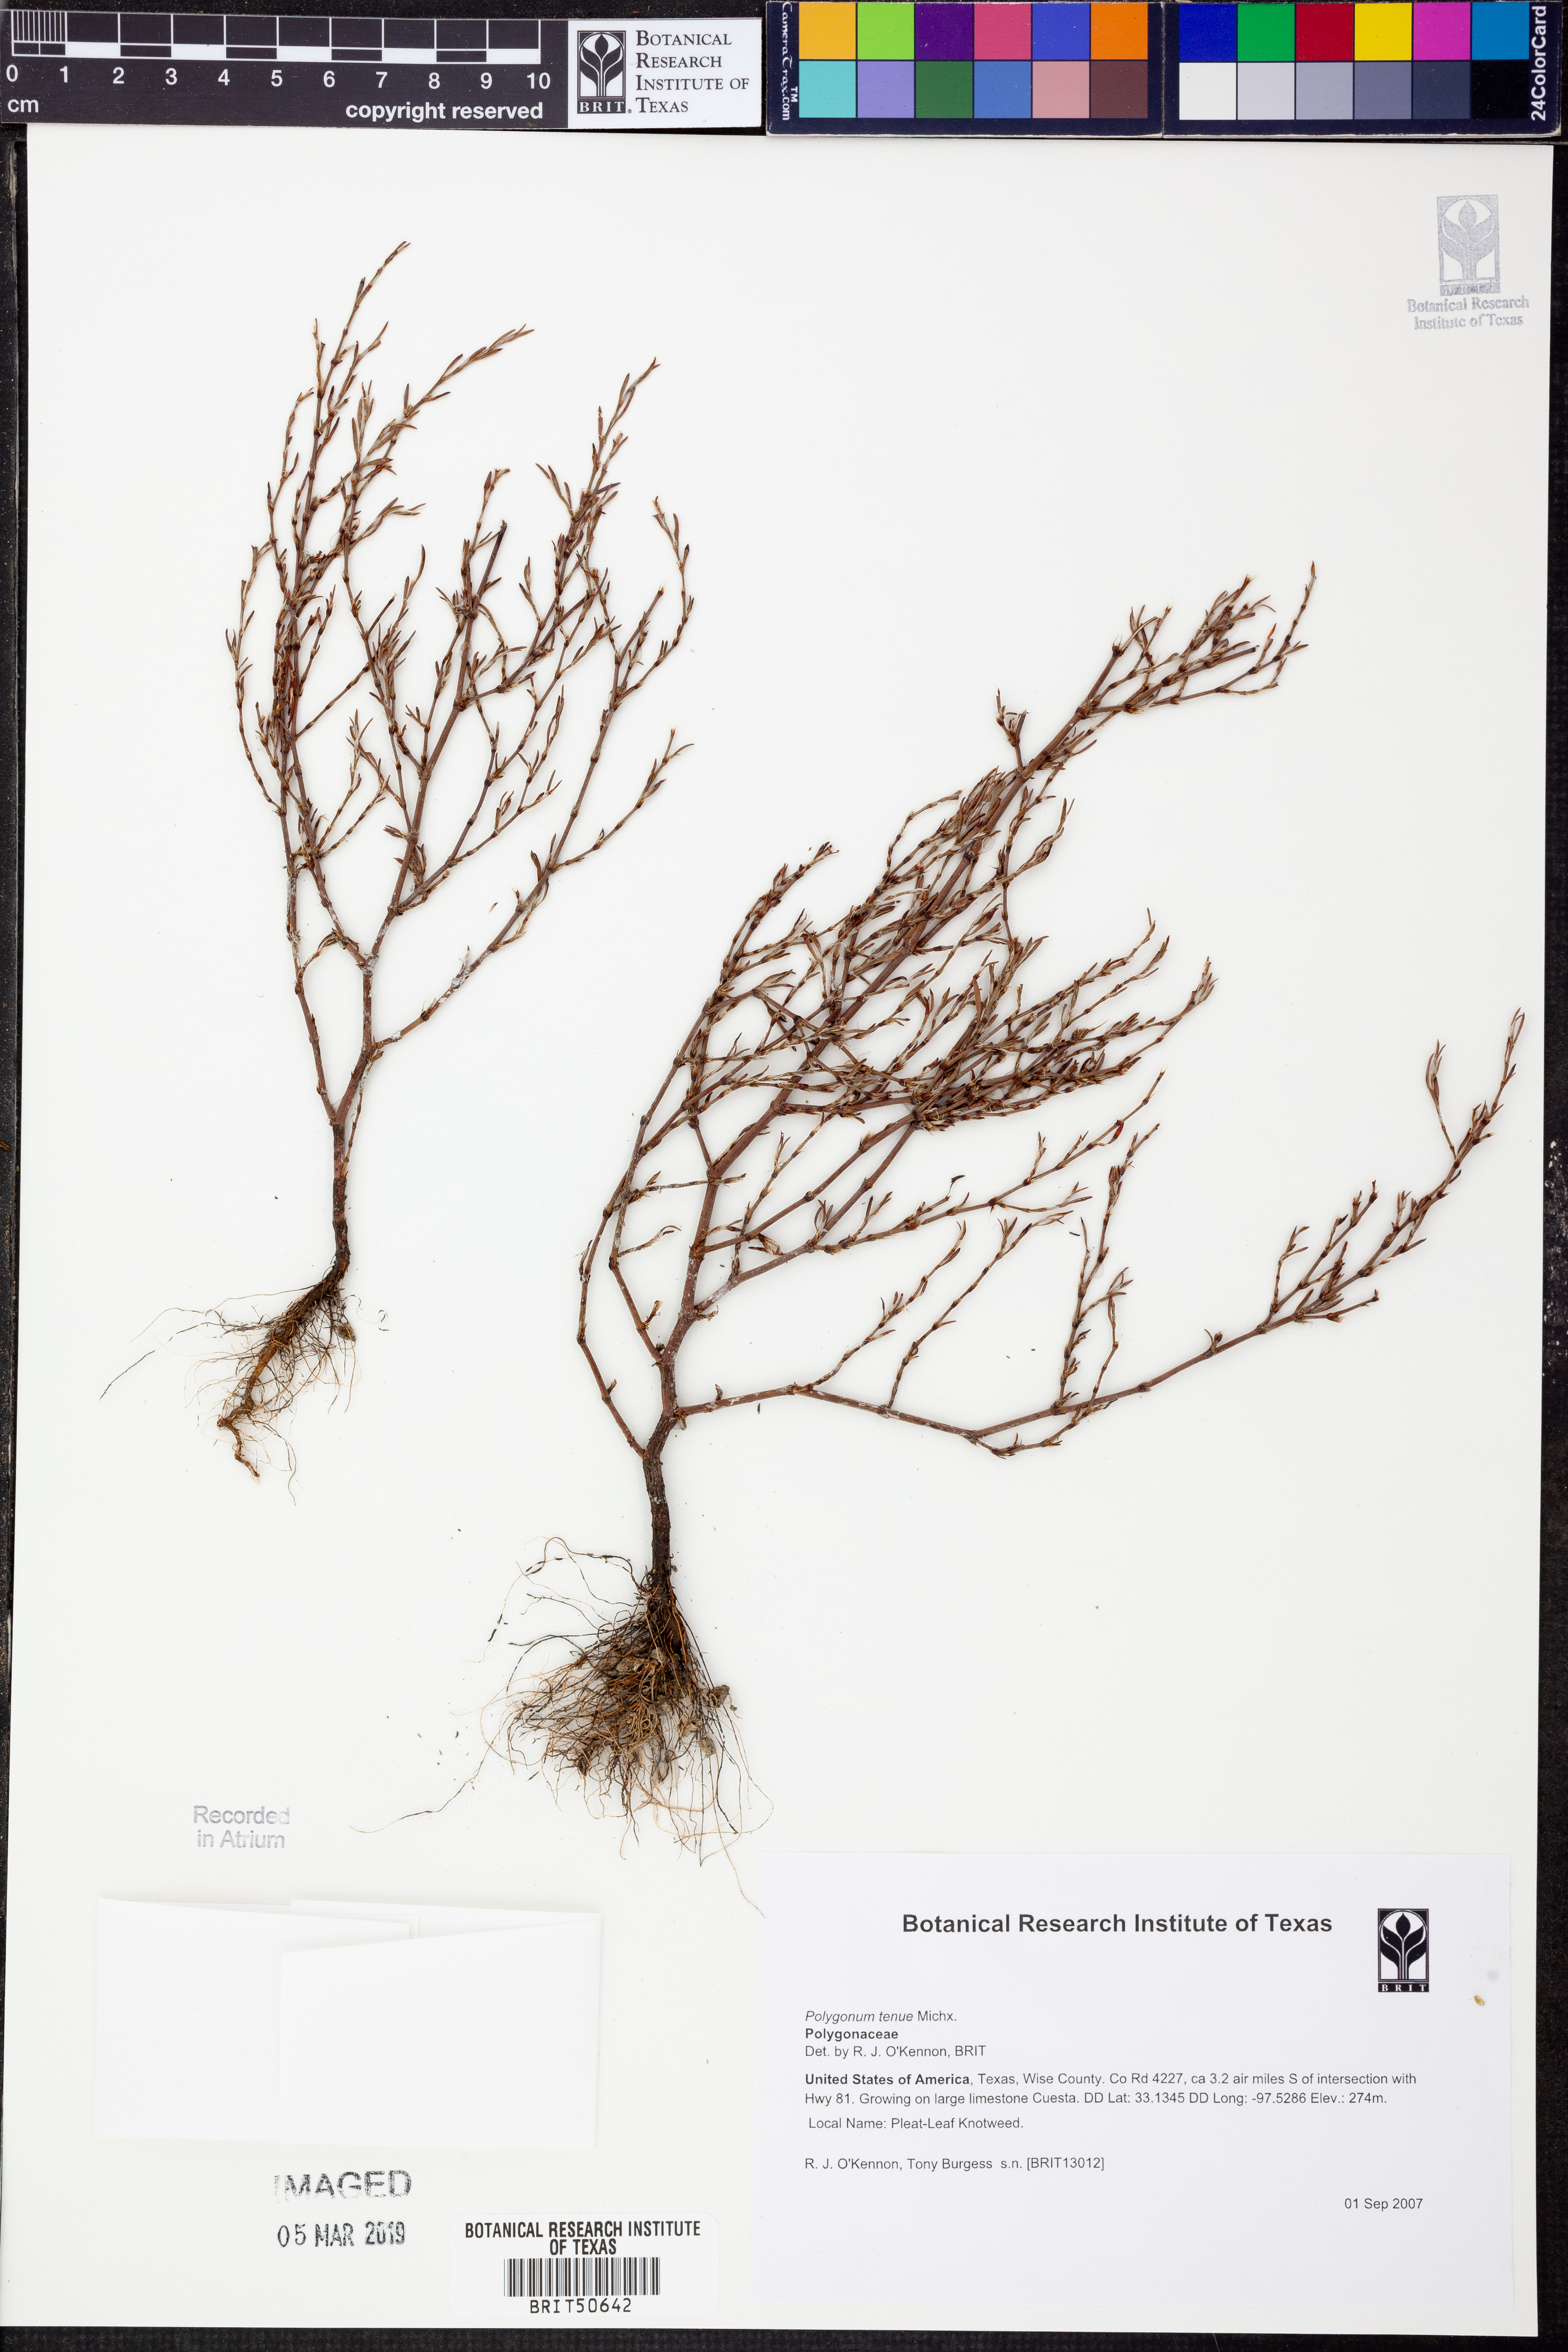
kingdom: Plantae
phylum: Tracheophyta
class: Magnoliopsida
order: Caryophyllales
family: Polygonaceae
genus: Polygonum
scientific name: Polygonum tenue
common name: Pleat-leaved knotweed
